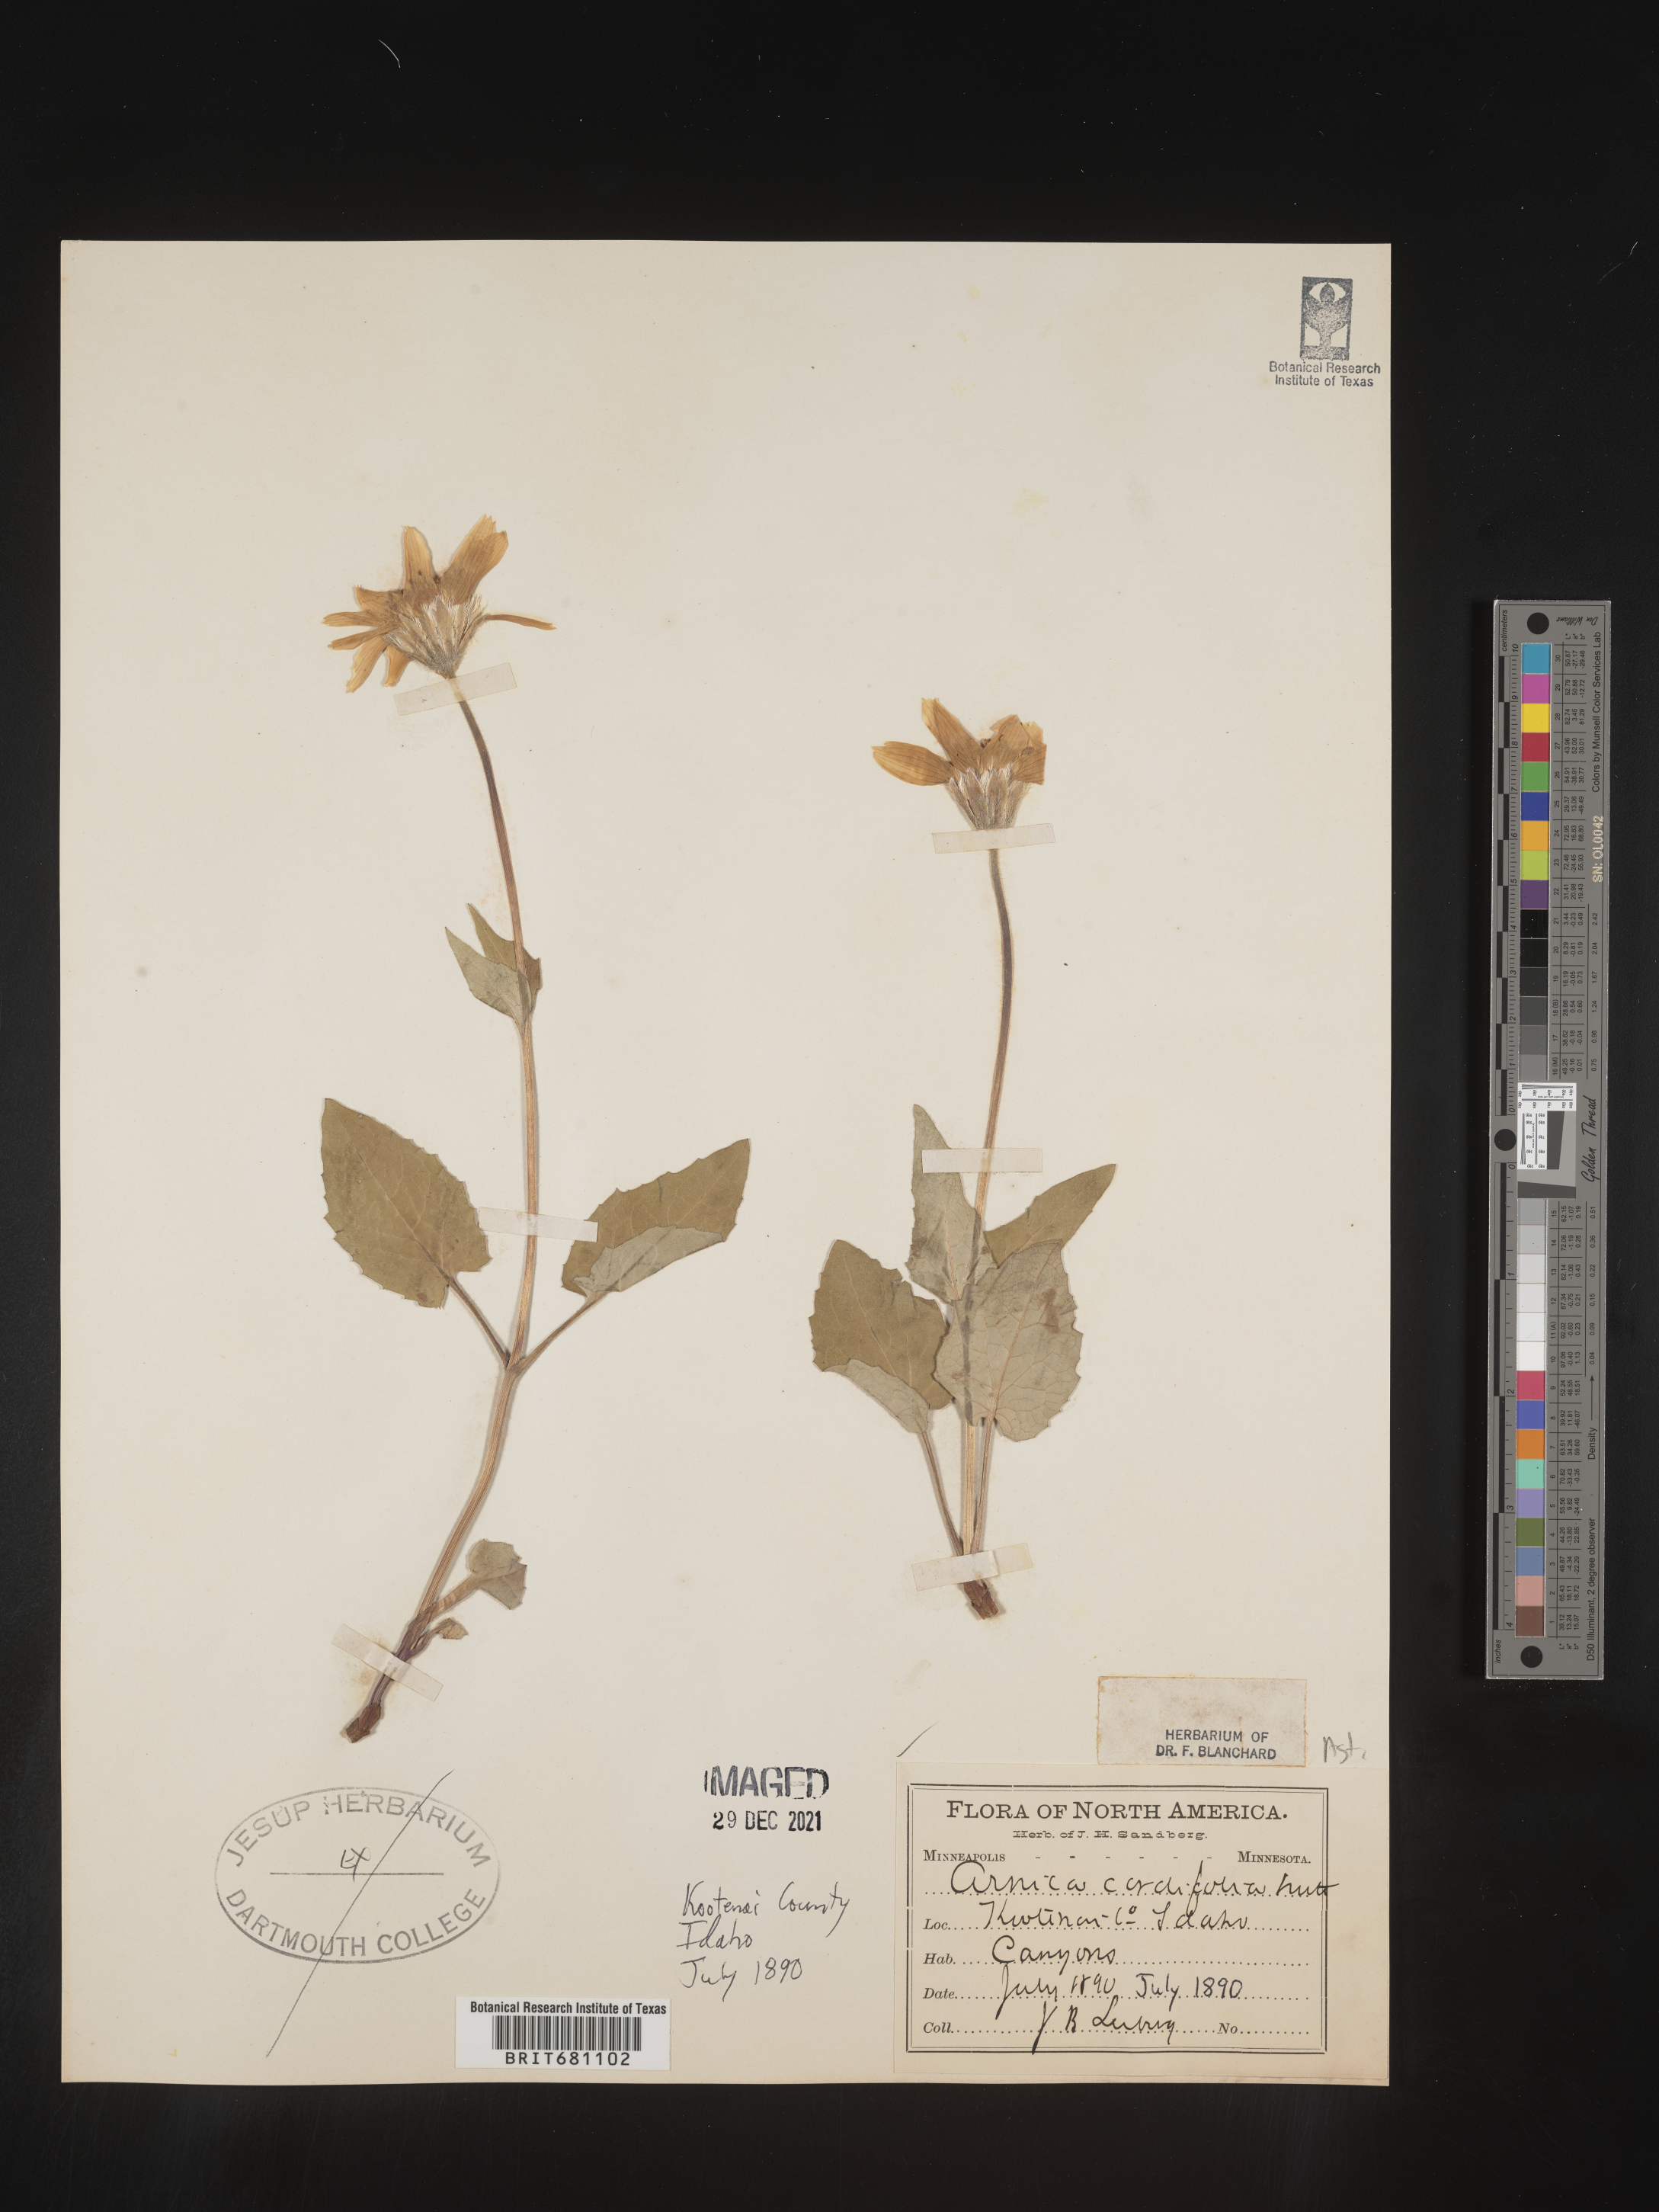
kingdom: Plantae
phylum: Tracheophyta
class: Magnoliopsida
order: Asterales
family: Asteraceae
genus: Arnica
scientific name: Arnica cordifolia
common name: Heart-leaf arnica
